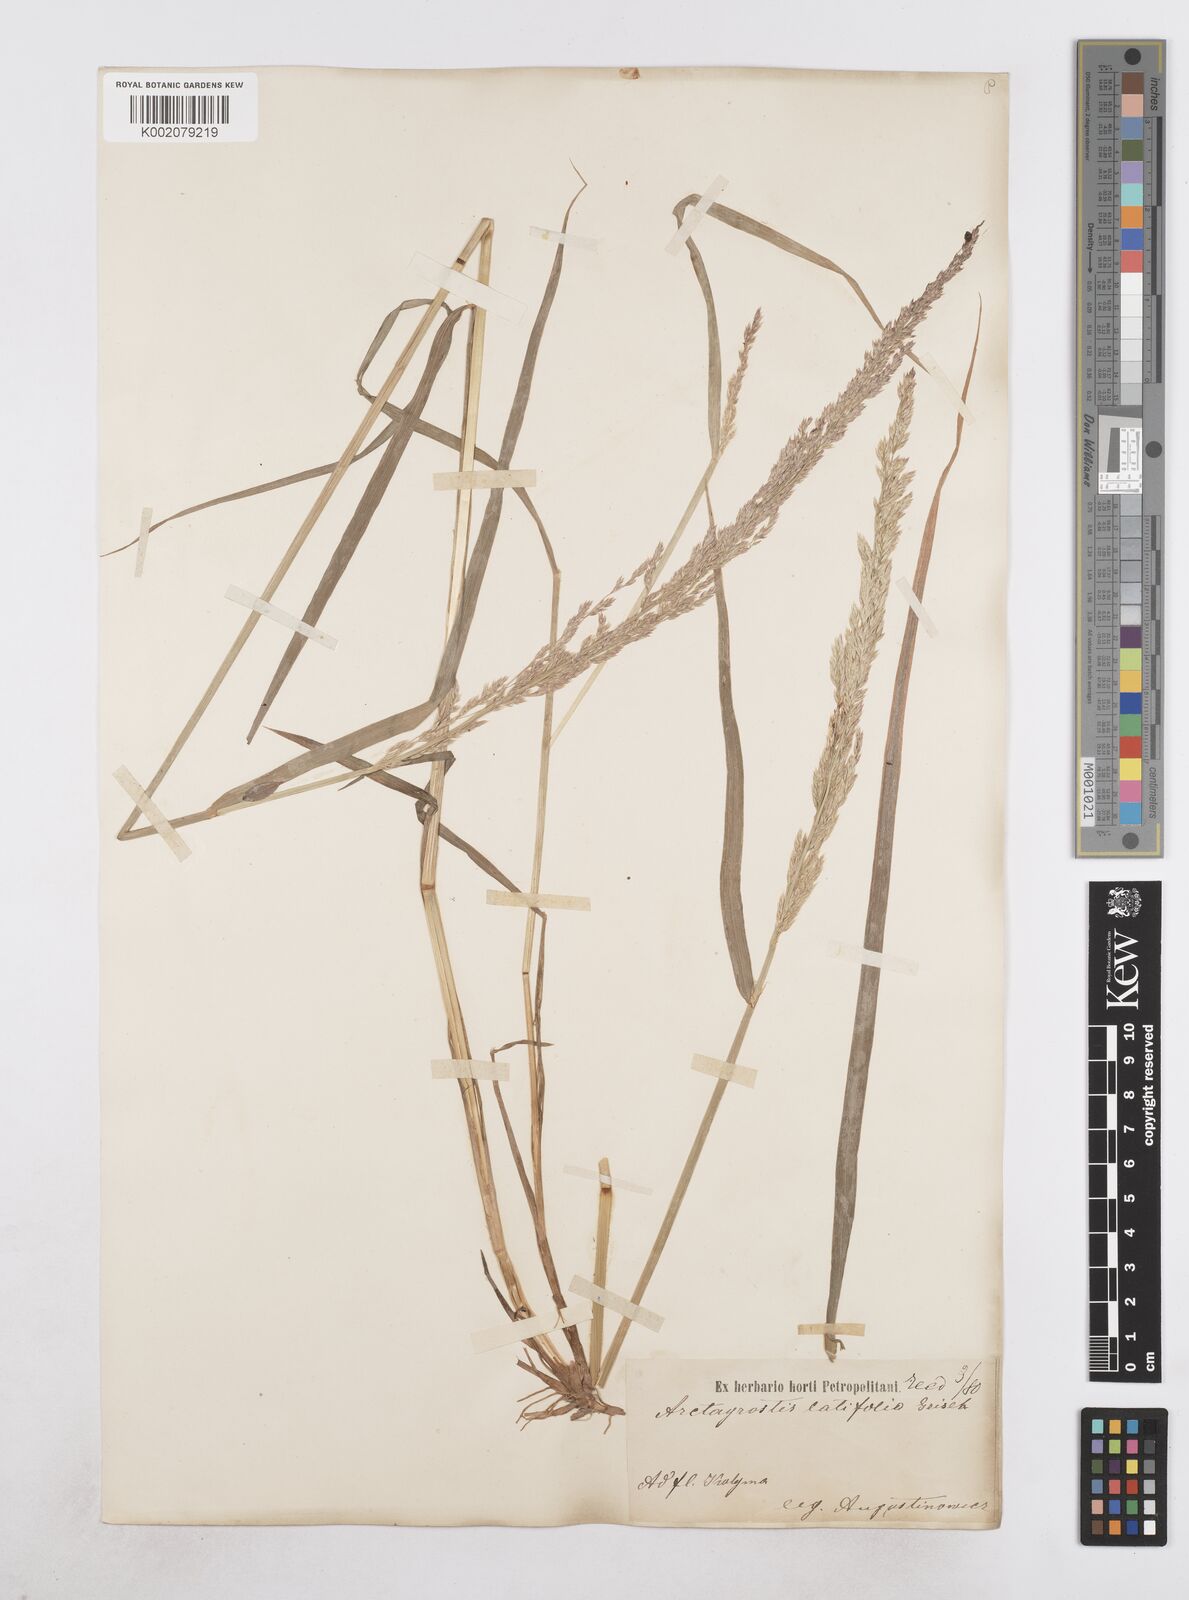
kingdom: Plantae
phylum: Tracheophyta
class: Liliopsida
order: Poales
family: Poaceae
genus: Arctagrostis
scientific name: Arctagrostis latifolia
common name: Arctic grass
